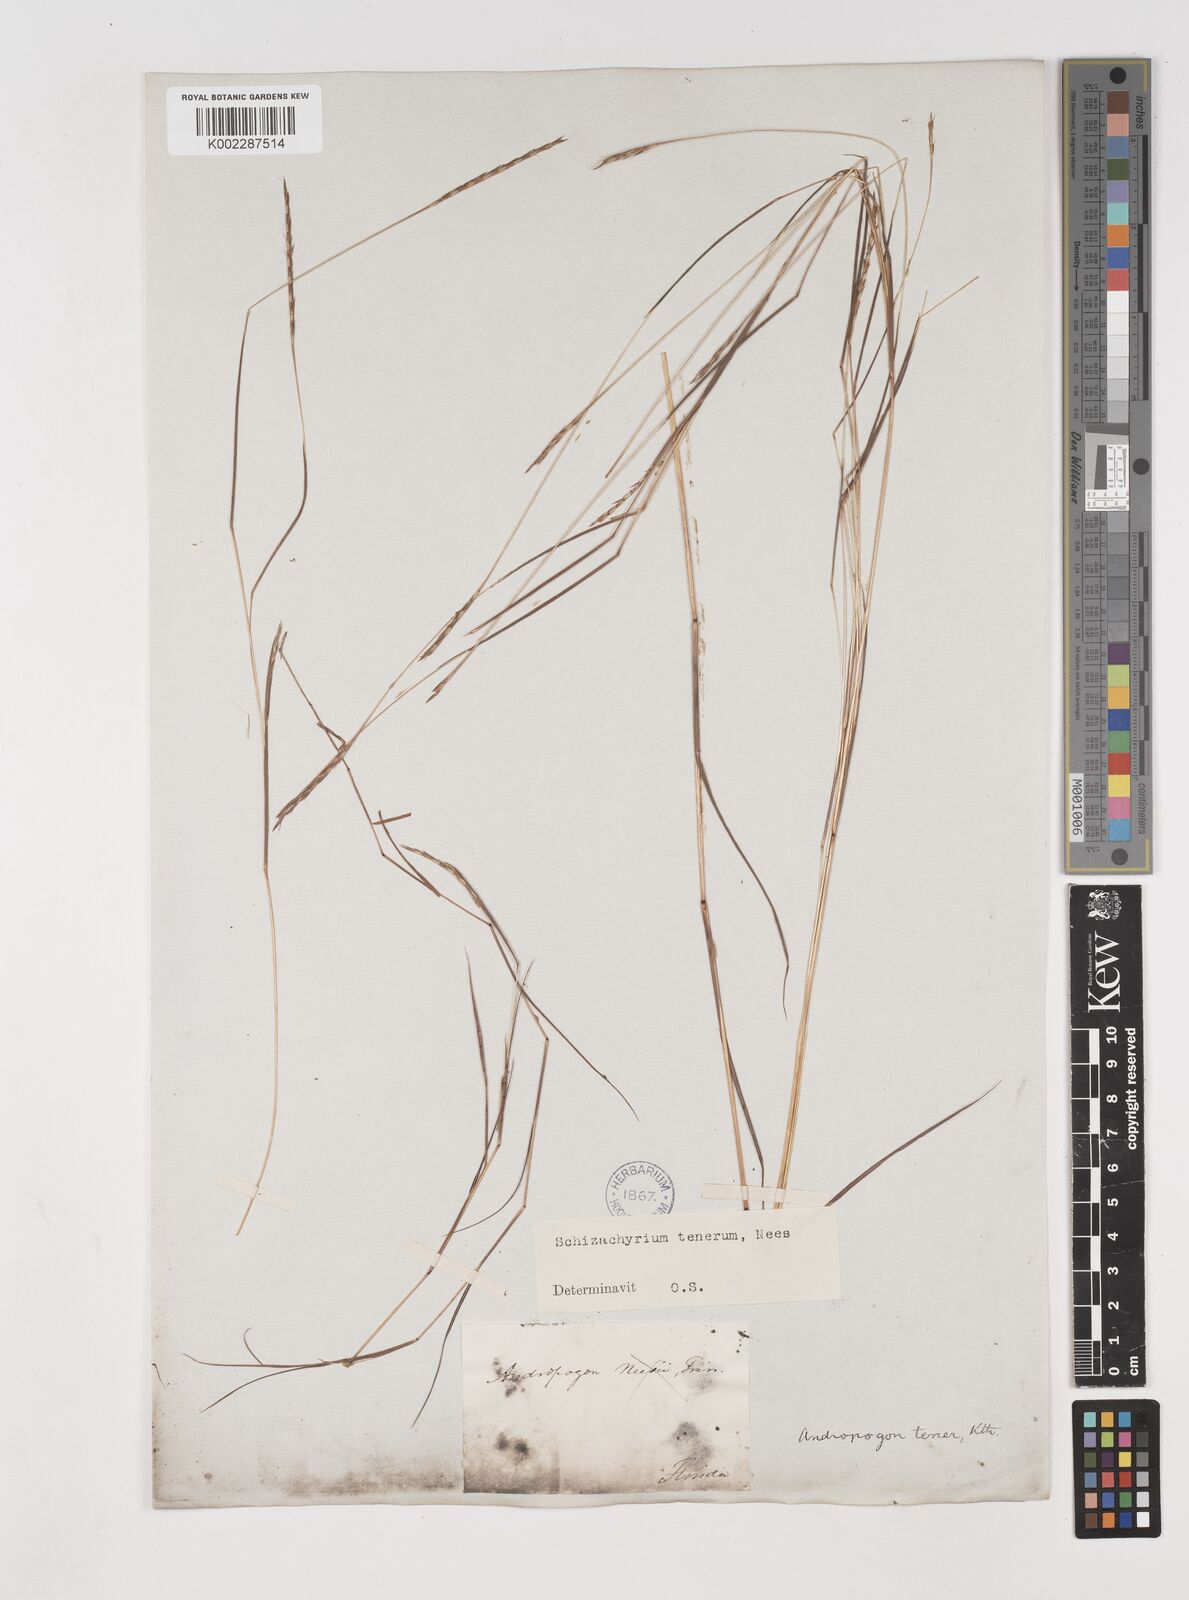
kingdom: Plantae
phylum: Tracheophyta
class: Liliopsida
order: Poales
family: Poaceae
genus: Andropogon
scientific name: Andropogon tener
